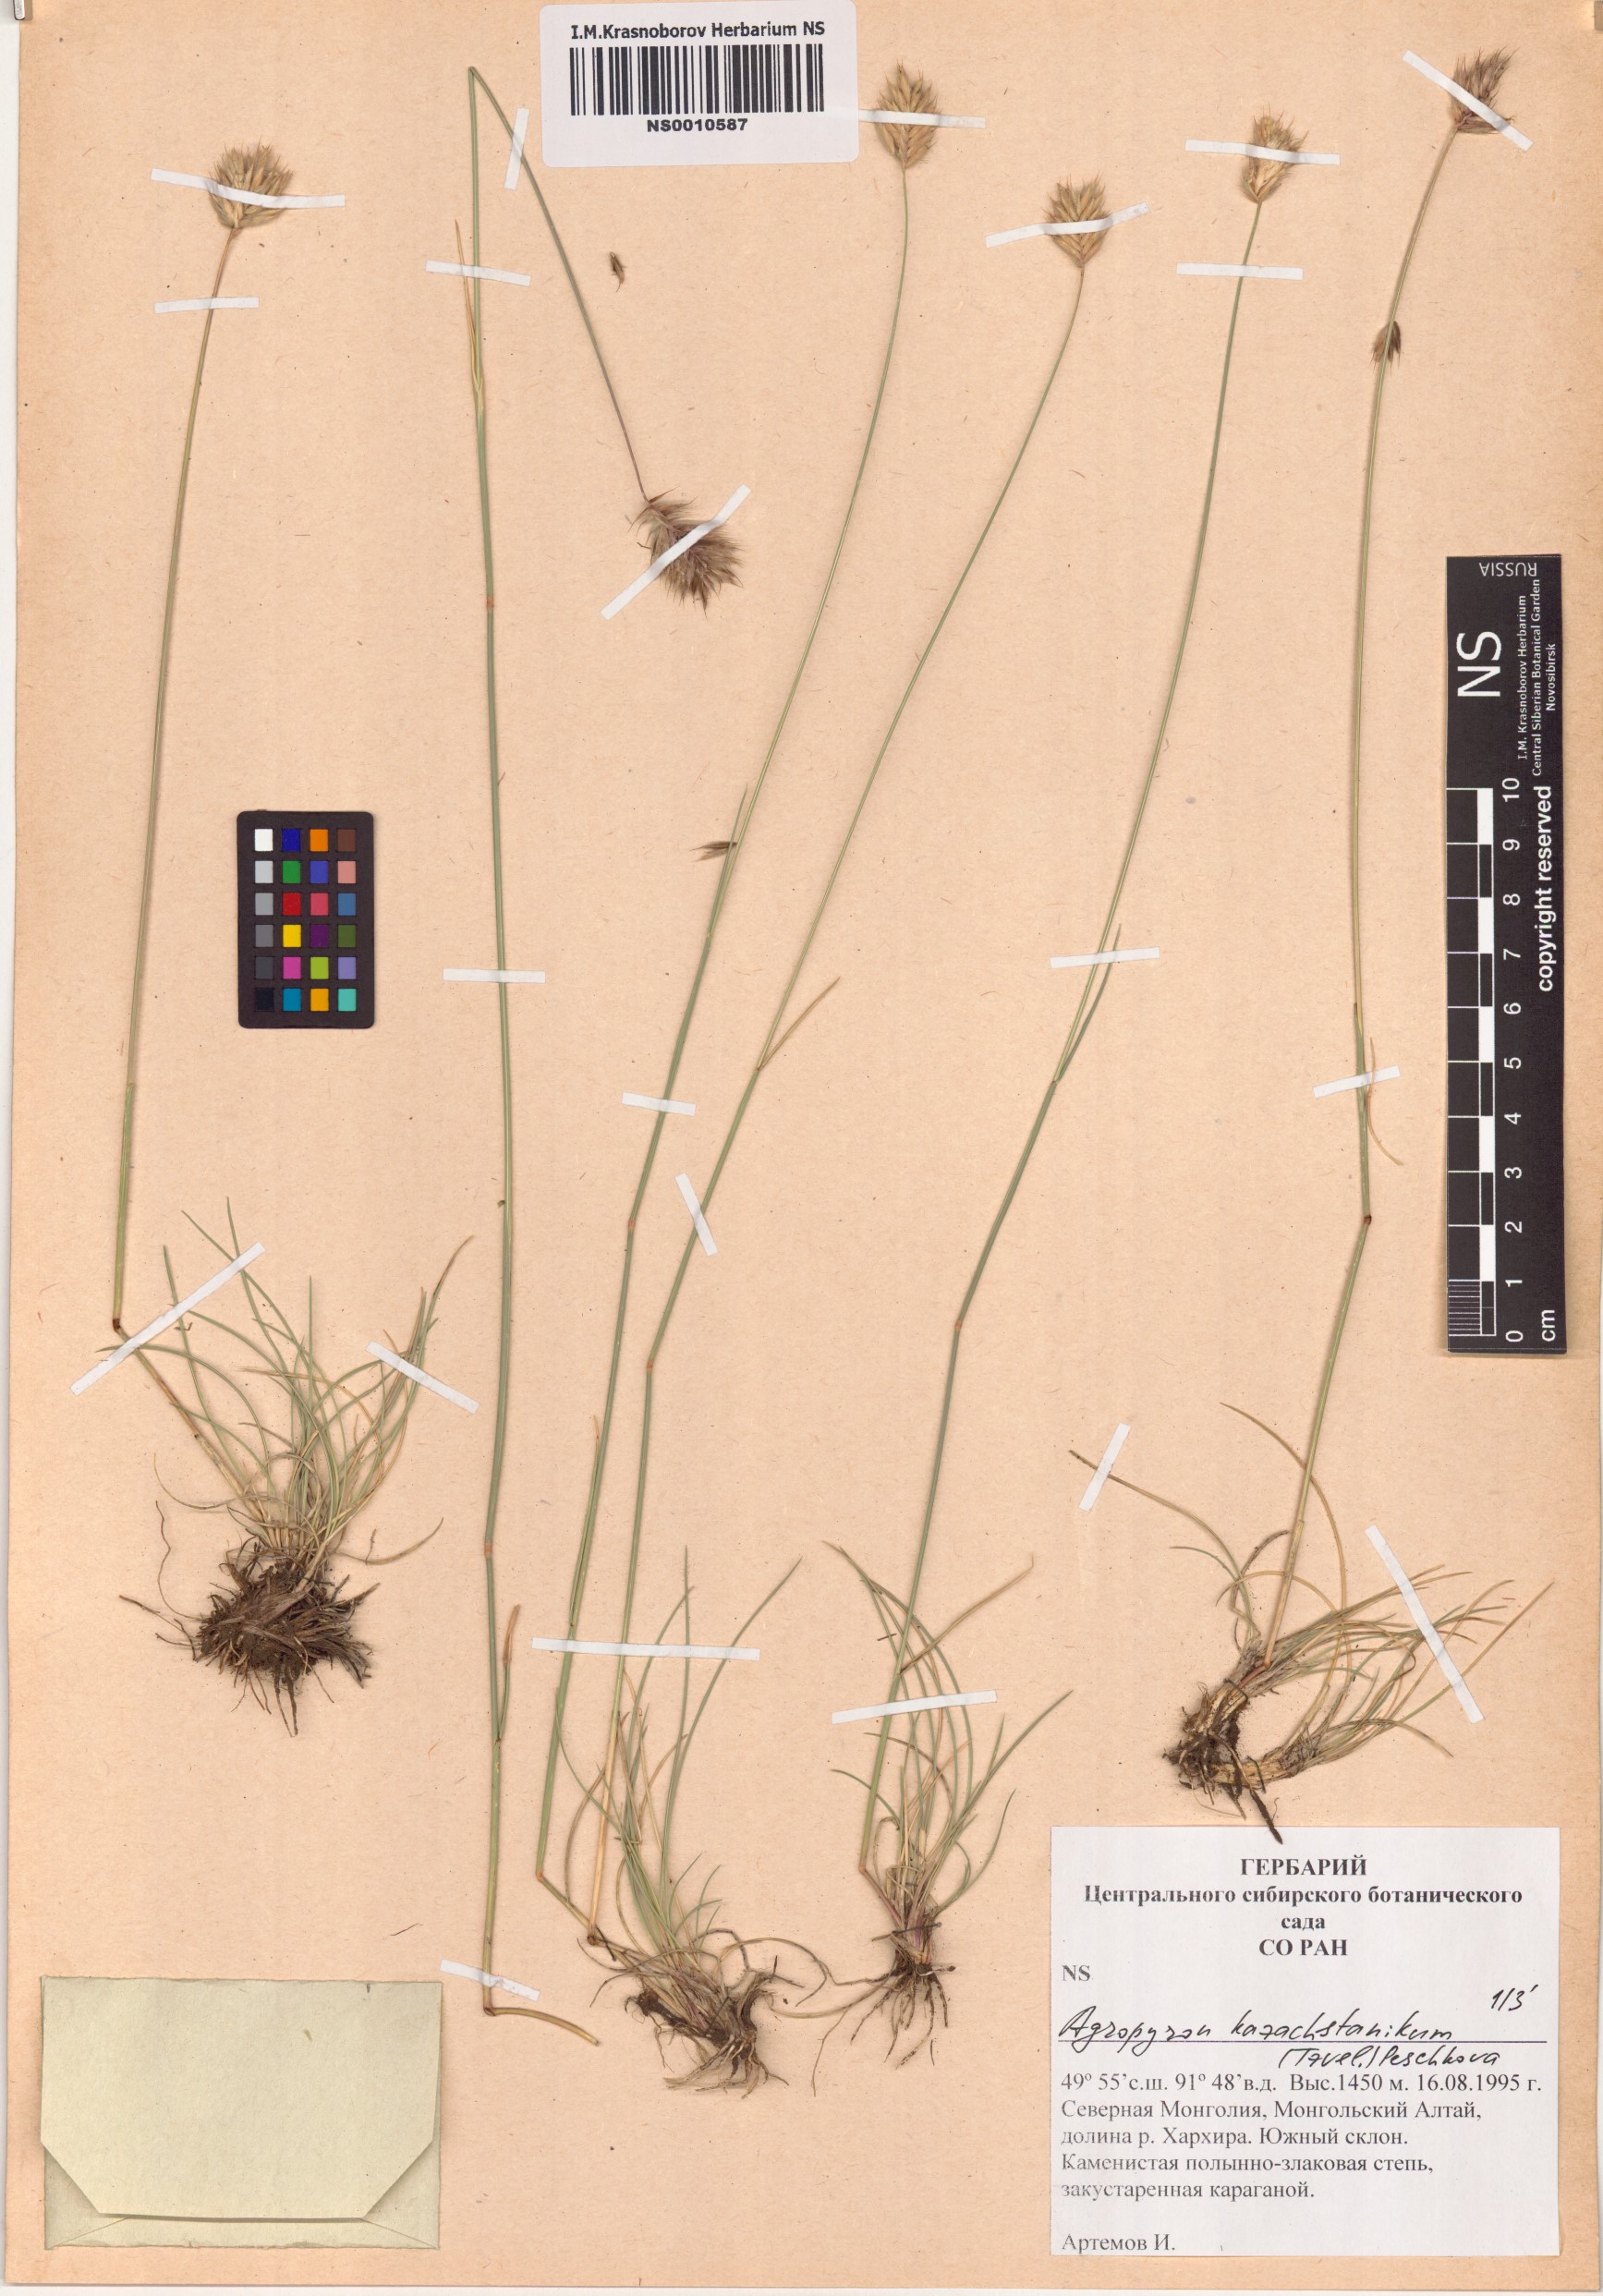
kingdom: Plantae
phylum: Tracheophyta
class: Liliopsida
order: Poales
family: Poaceae
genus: Agropyron
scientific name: Agropyron cristatum
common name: Crested wheatgrass
